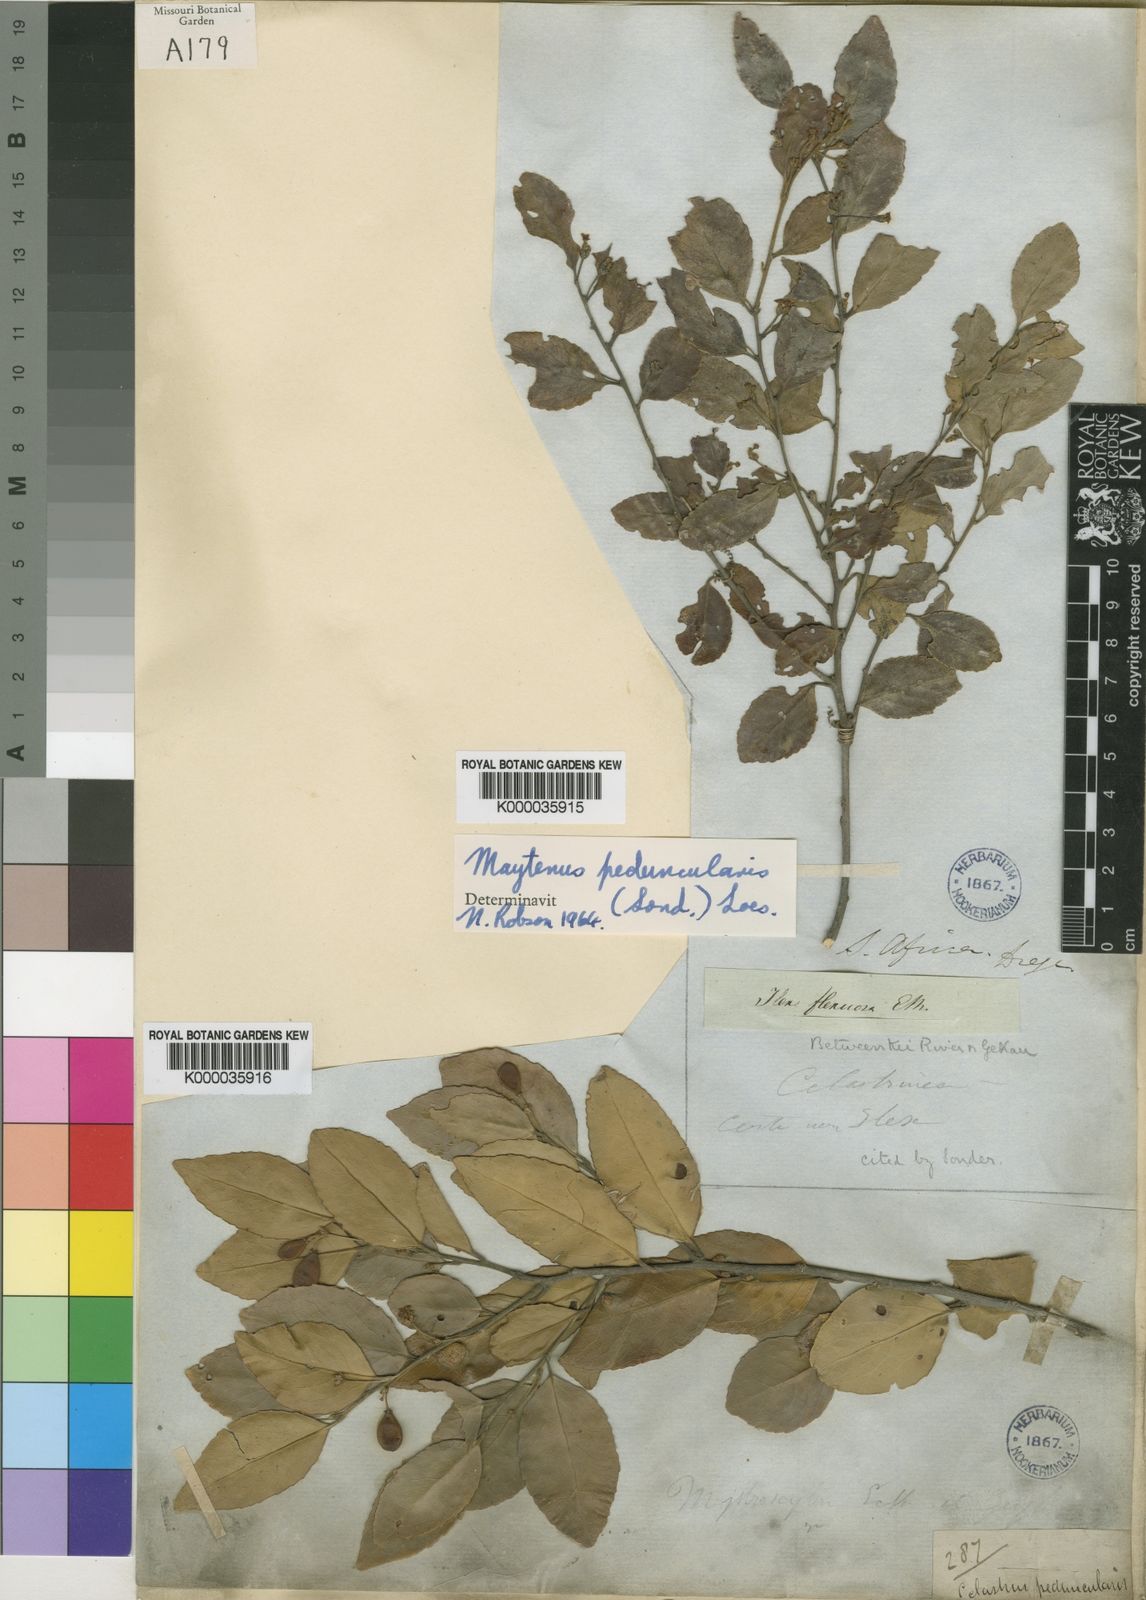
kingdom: Plantae
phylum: Tracheophyta
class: Magnoliopsida
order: Celastrales
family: Celastraceae
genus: Gymnosporia
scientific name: Gymnosporia peduncularis
